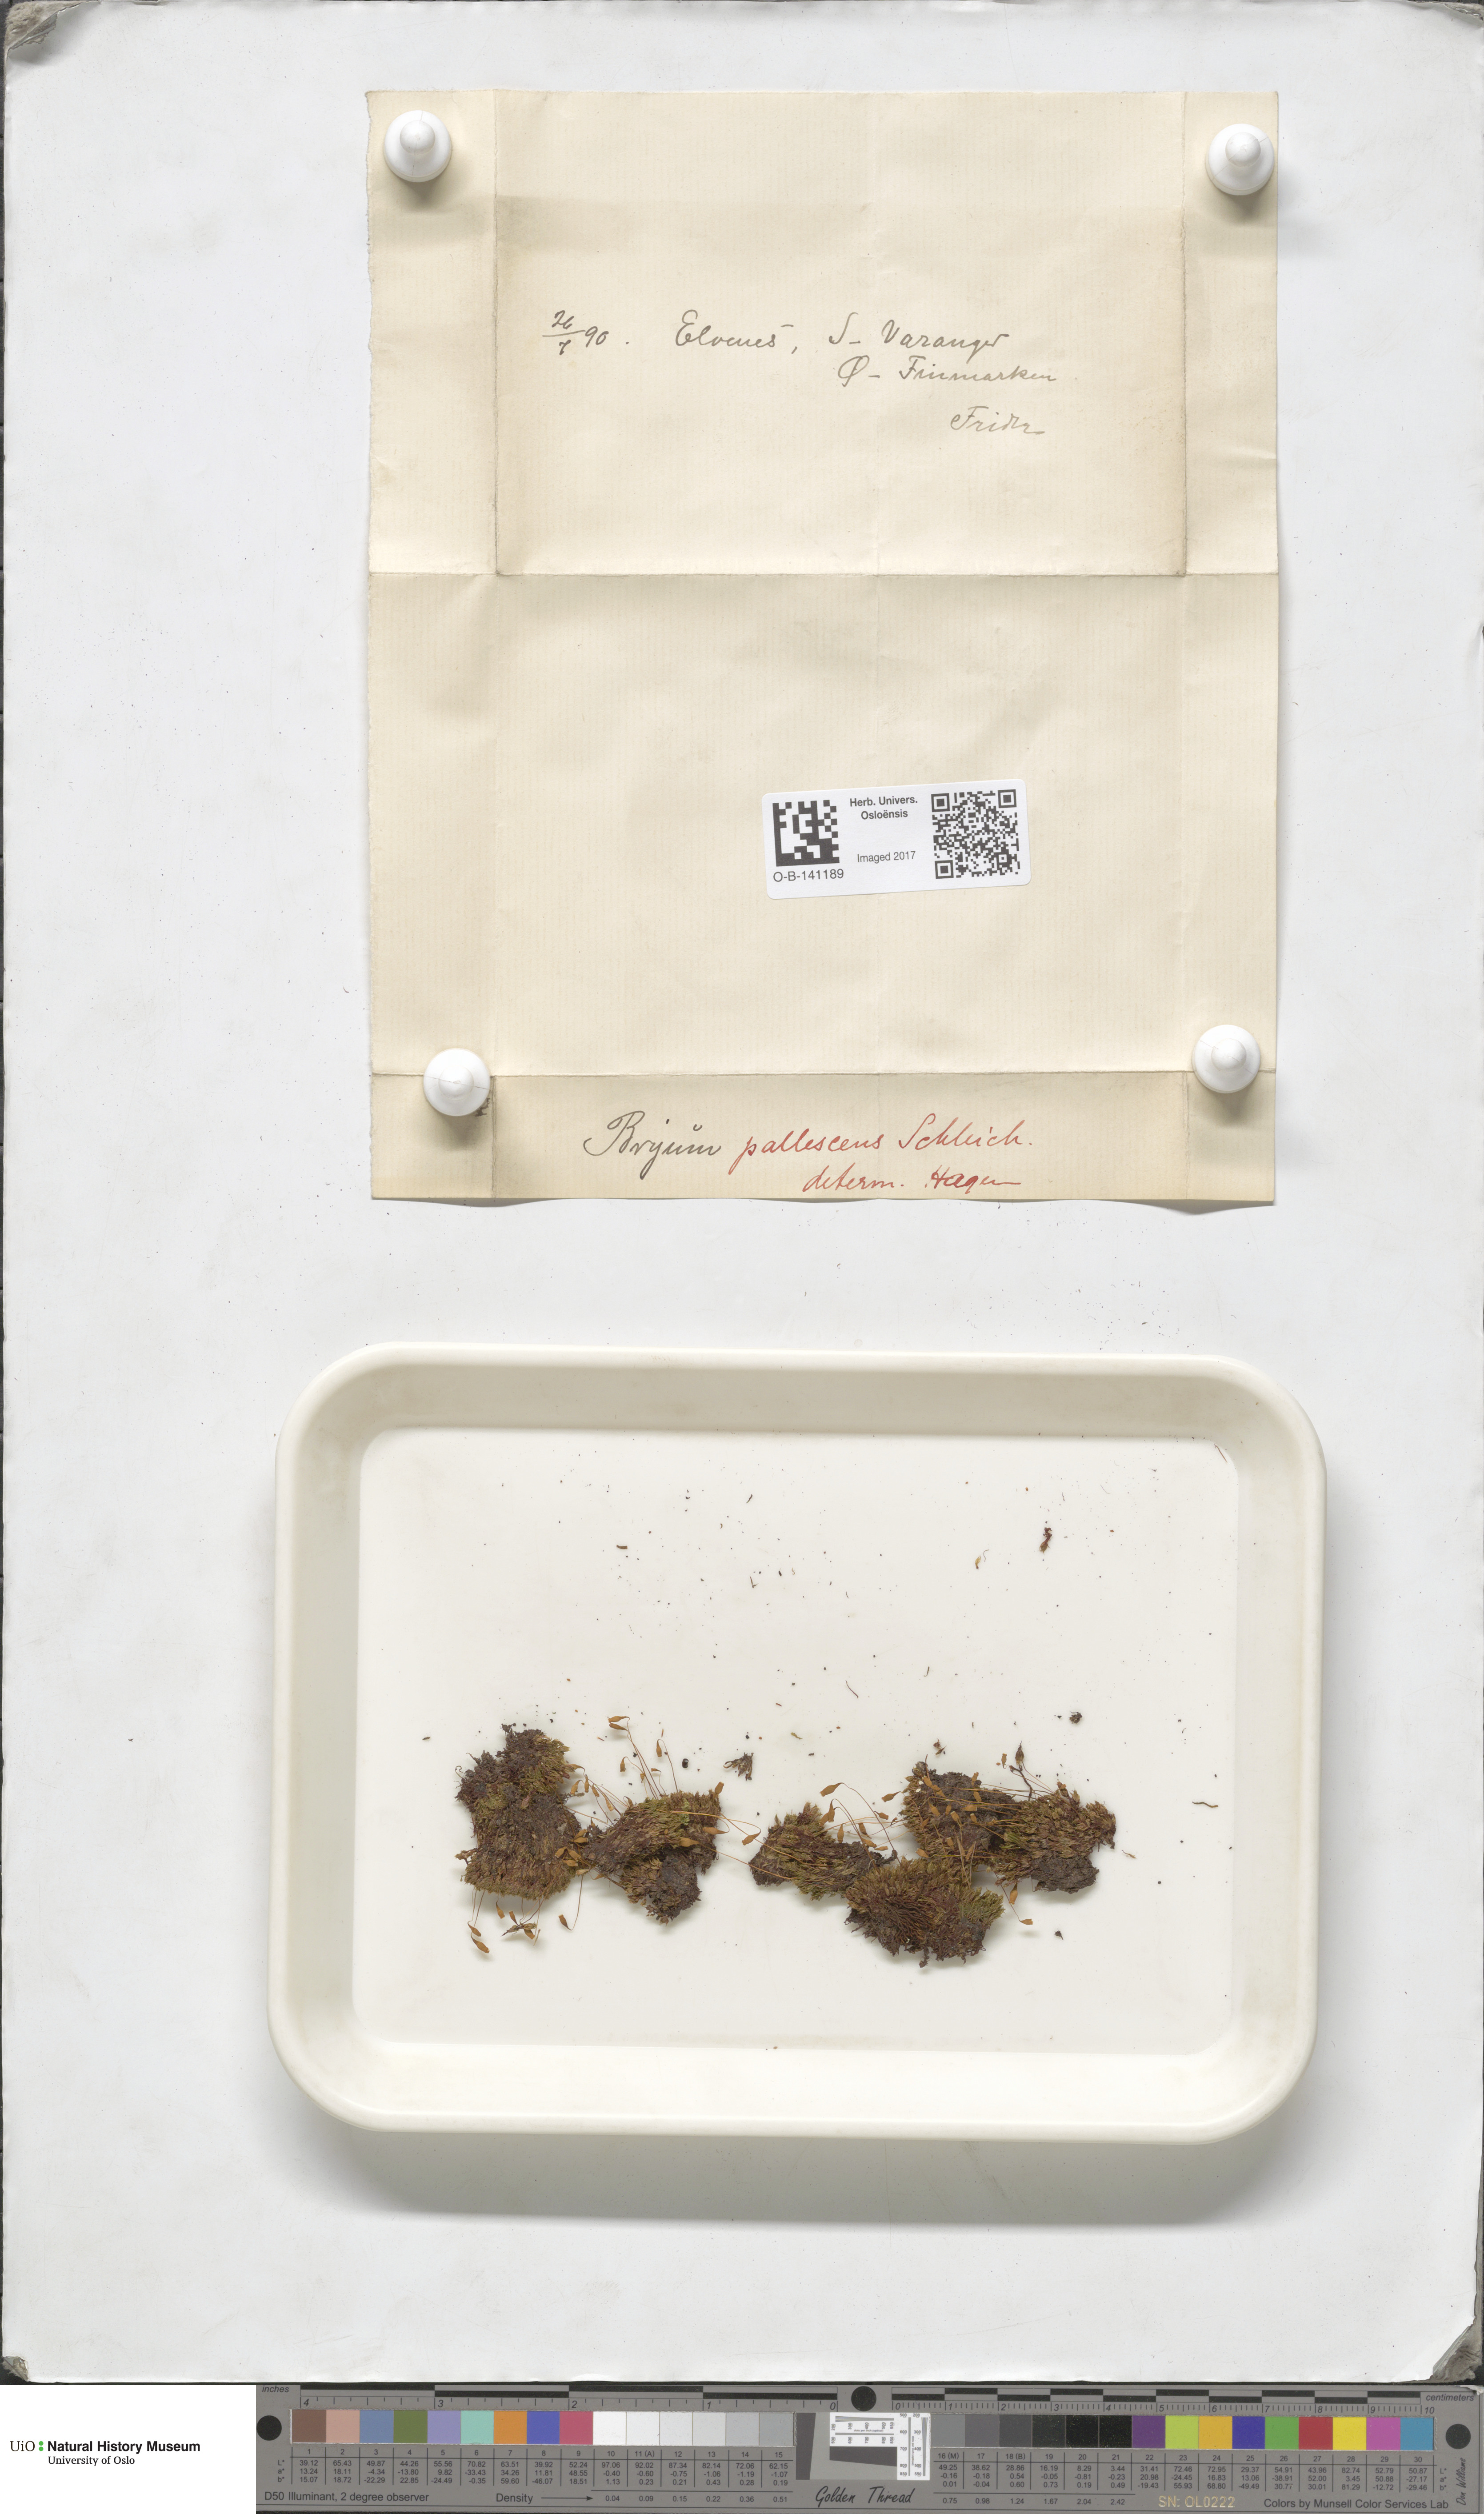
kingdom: Plantae
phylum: Bryophyta
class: Bryopsida
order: Bryales
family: Bryaceae
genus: Ptychostomum
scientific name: Ptychostomum pallens
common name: Pale thread-moss
